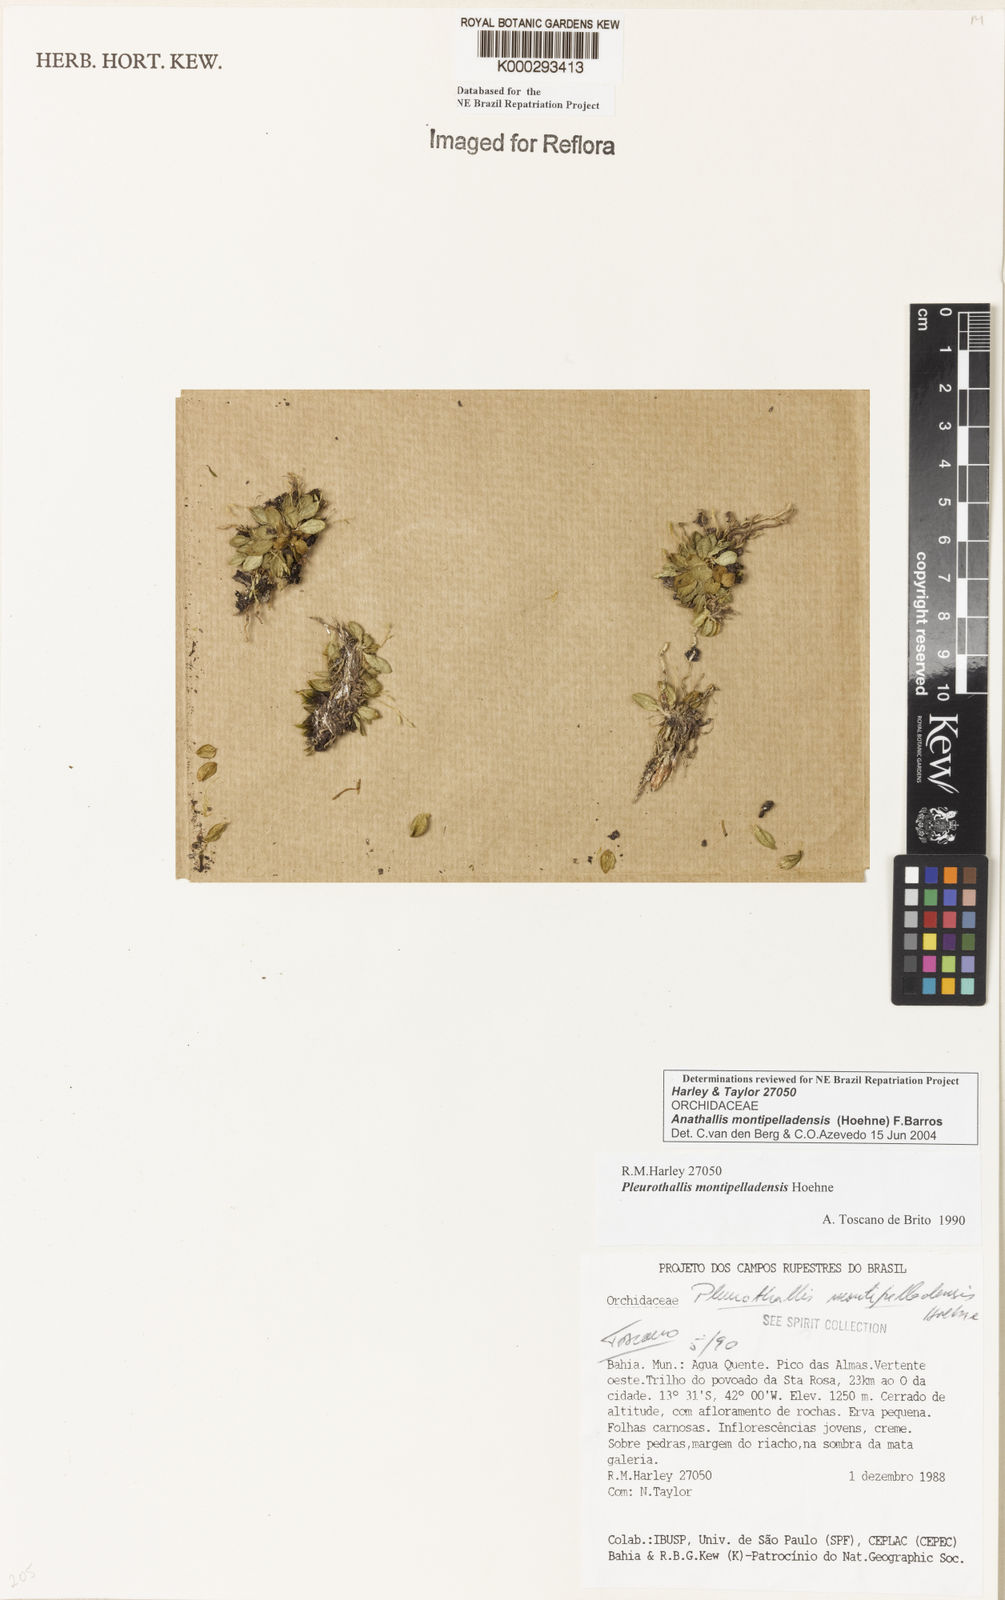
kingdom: Plantae
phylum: Tracheophyta
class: Liliopsida
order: Asparagales
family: Orchidaceae
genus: Anathallis
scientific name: Anathallis montipelladensis
